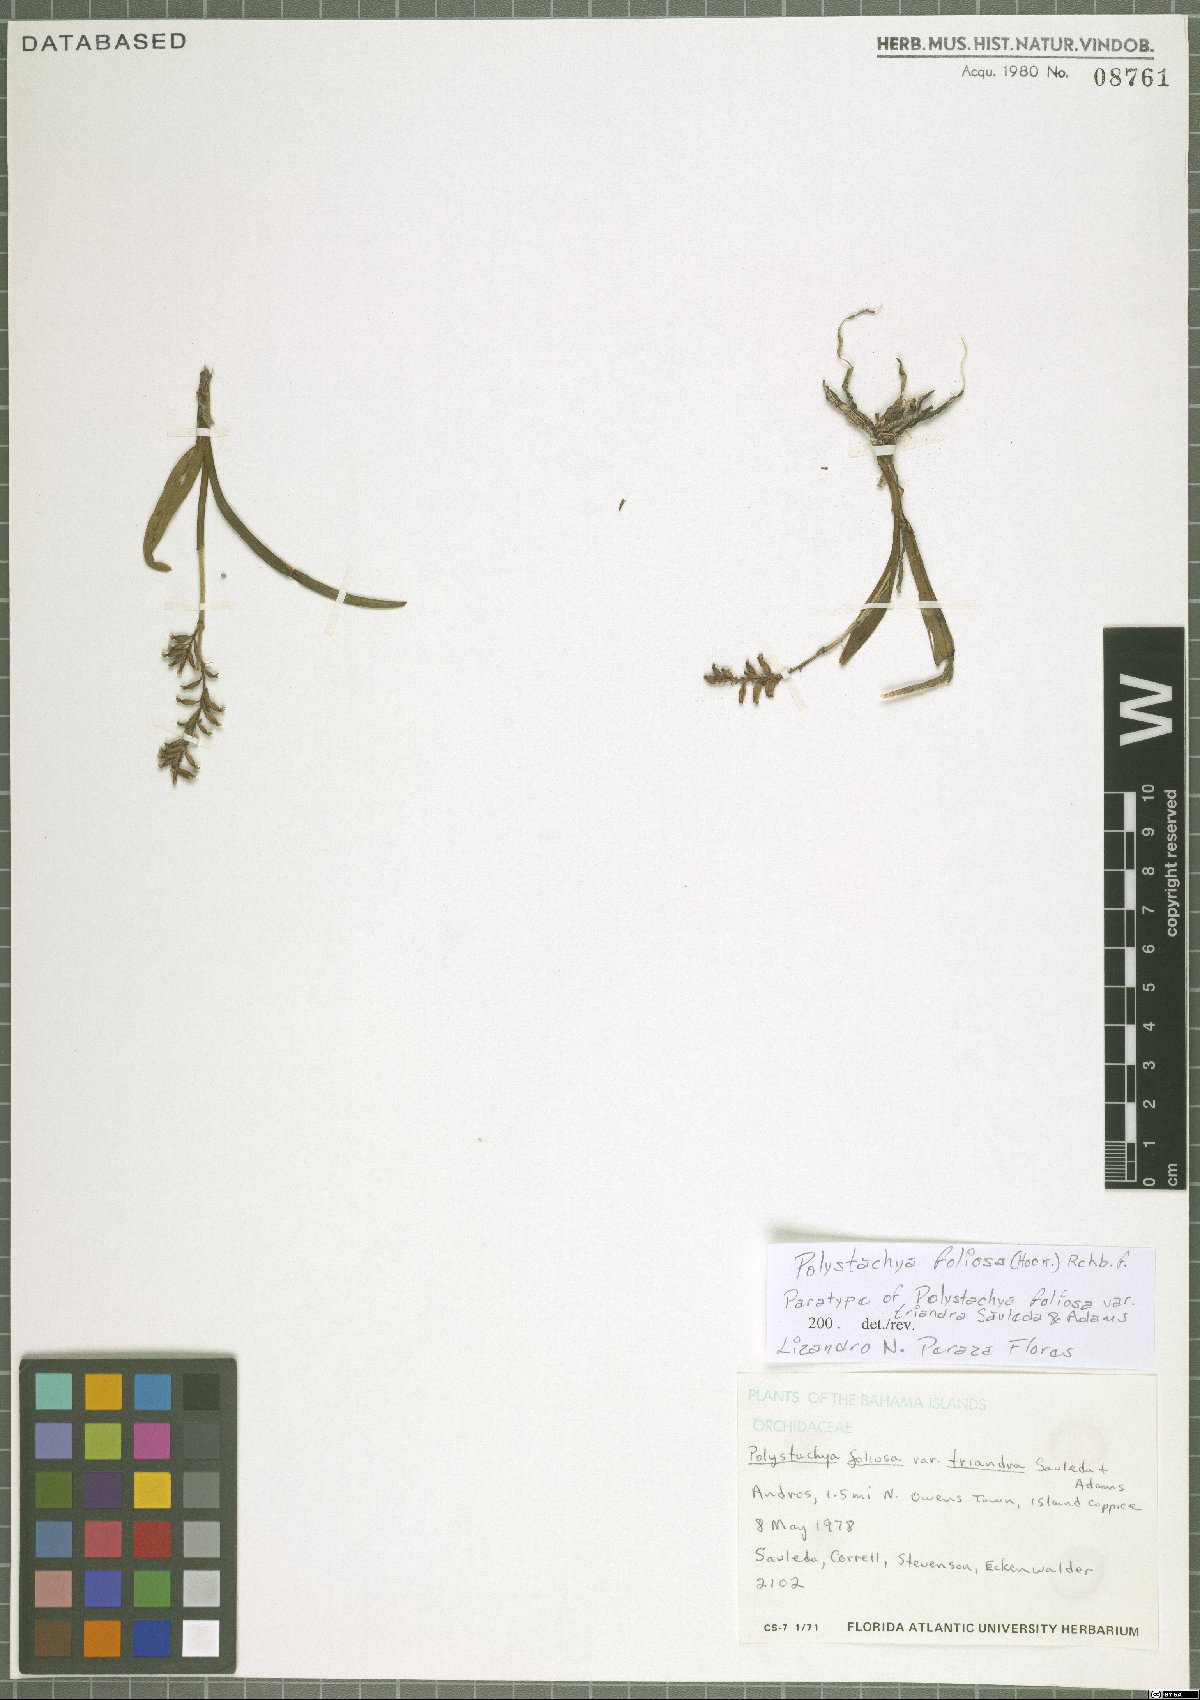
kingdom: Plantae
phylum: Tracheophyta
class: Liliopsida
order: Asparagales
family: Orchidaceae
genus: Polystachya
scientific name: Polystachya foliosa
